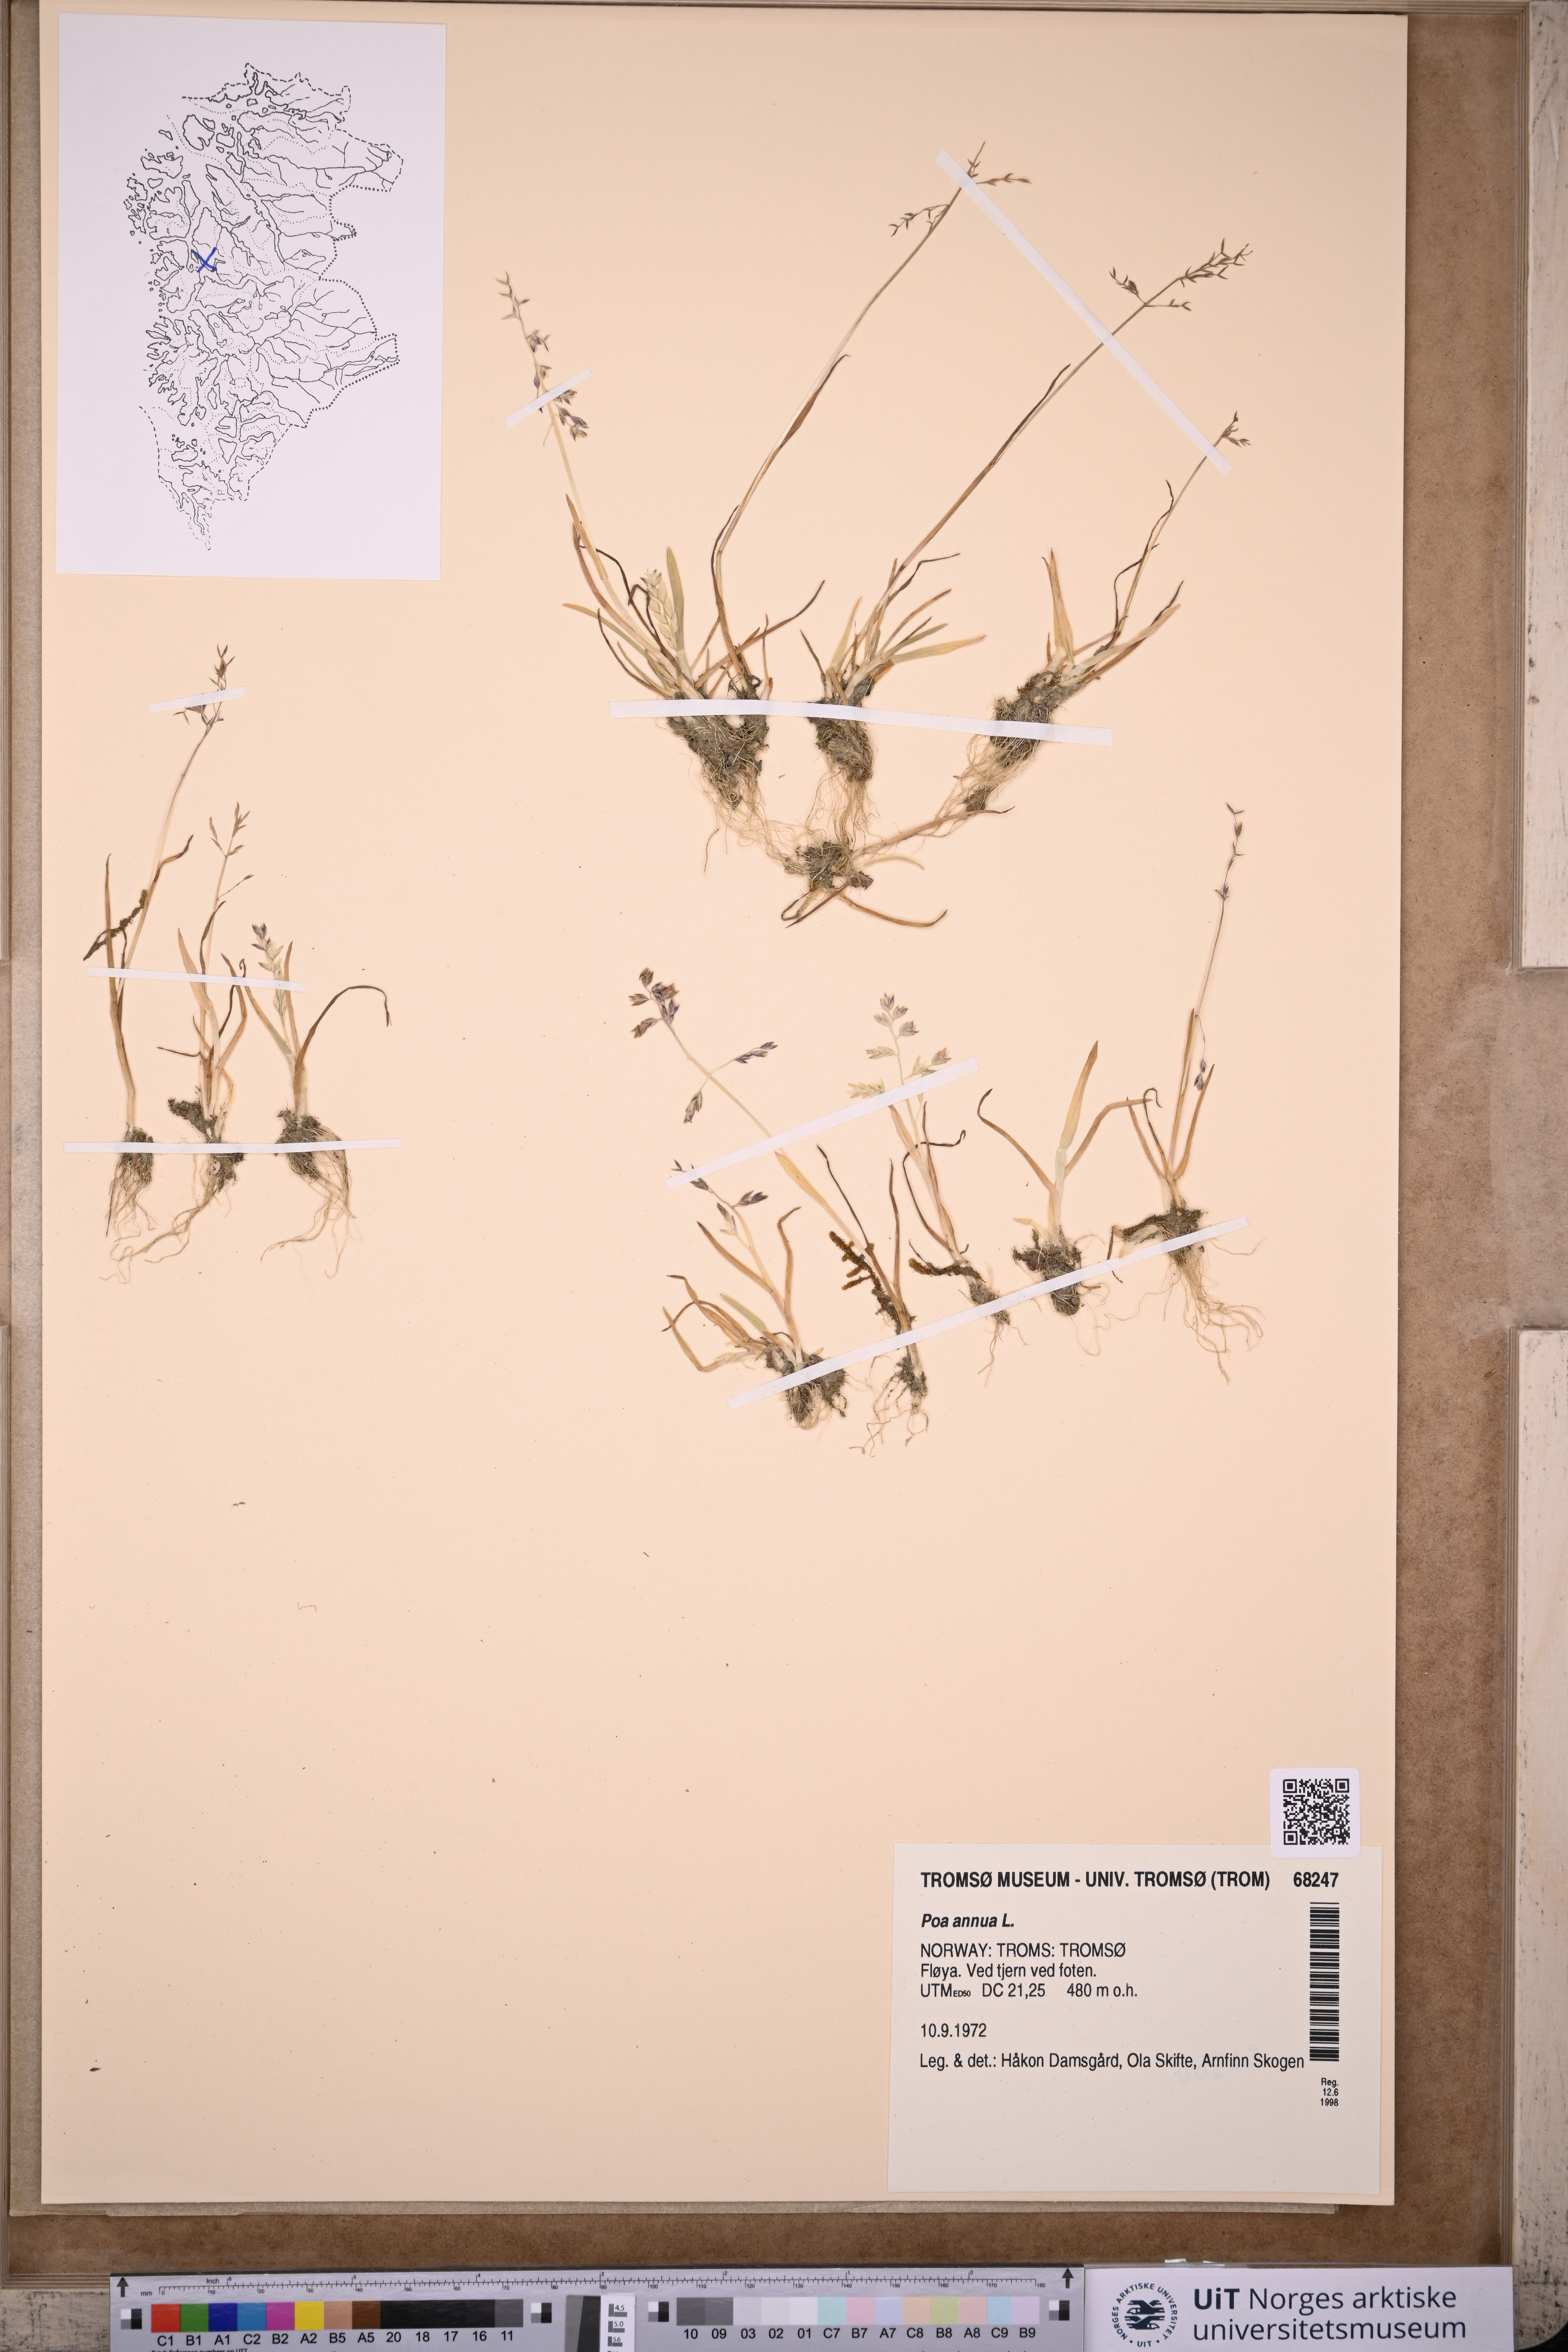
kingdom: Plantae
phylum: Tracheophyta
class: Liliopsida
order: Poales
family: Poaceae
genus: Poa
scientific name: Poa annua
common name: Annual bluegrass
